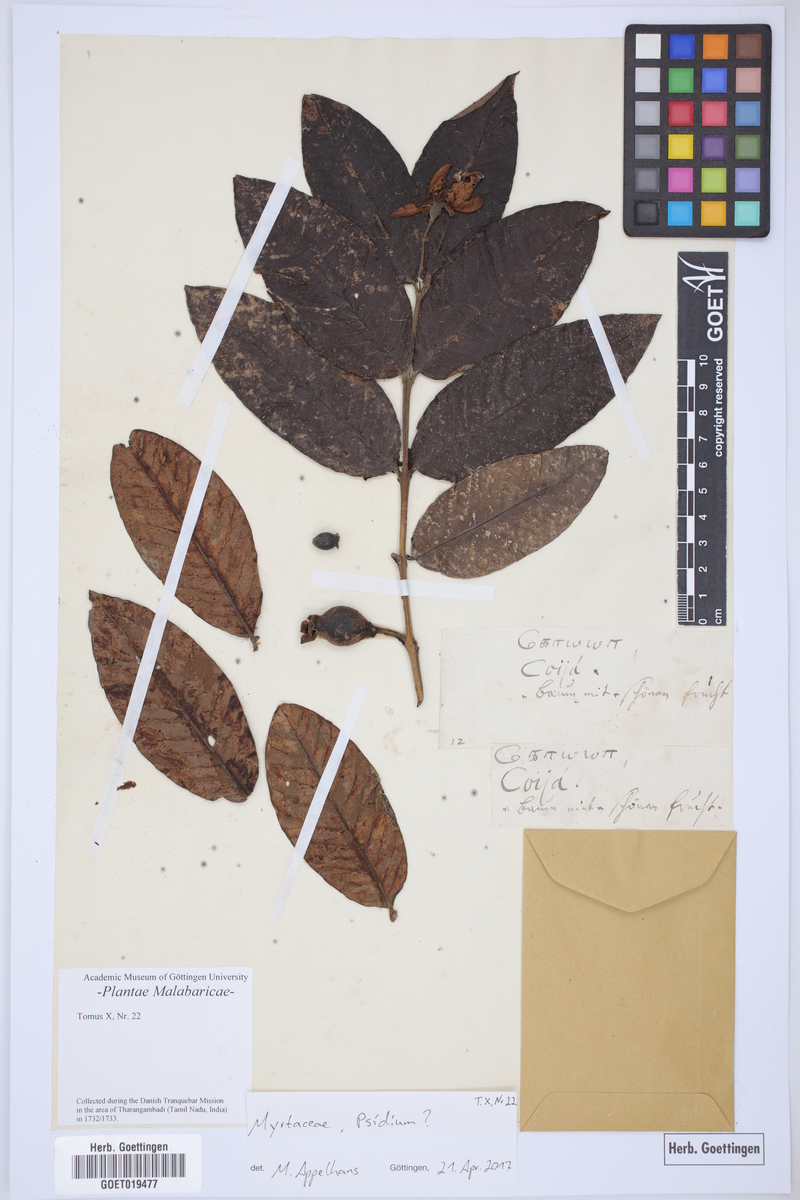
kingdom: Plantae
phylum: Tracheophyta
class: Magnoliopsida
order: Myrtales
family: Myrtaceae
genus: Psidium
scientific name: Psidium
